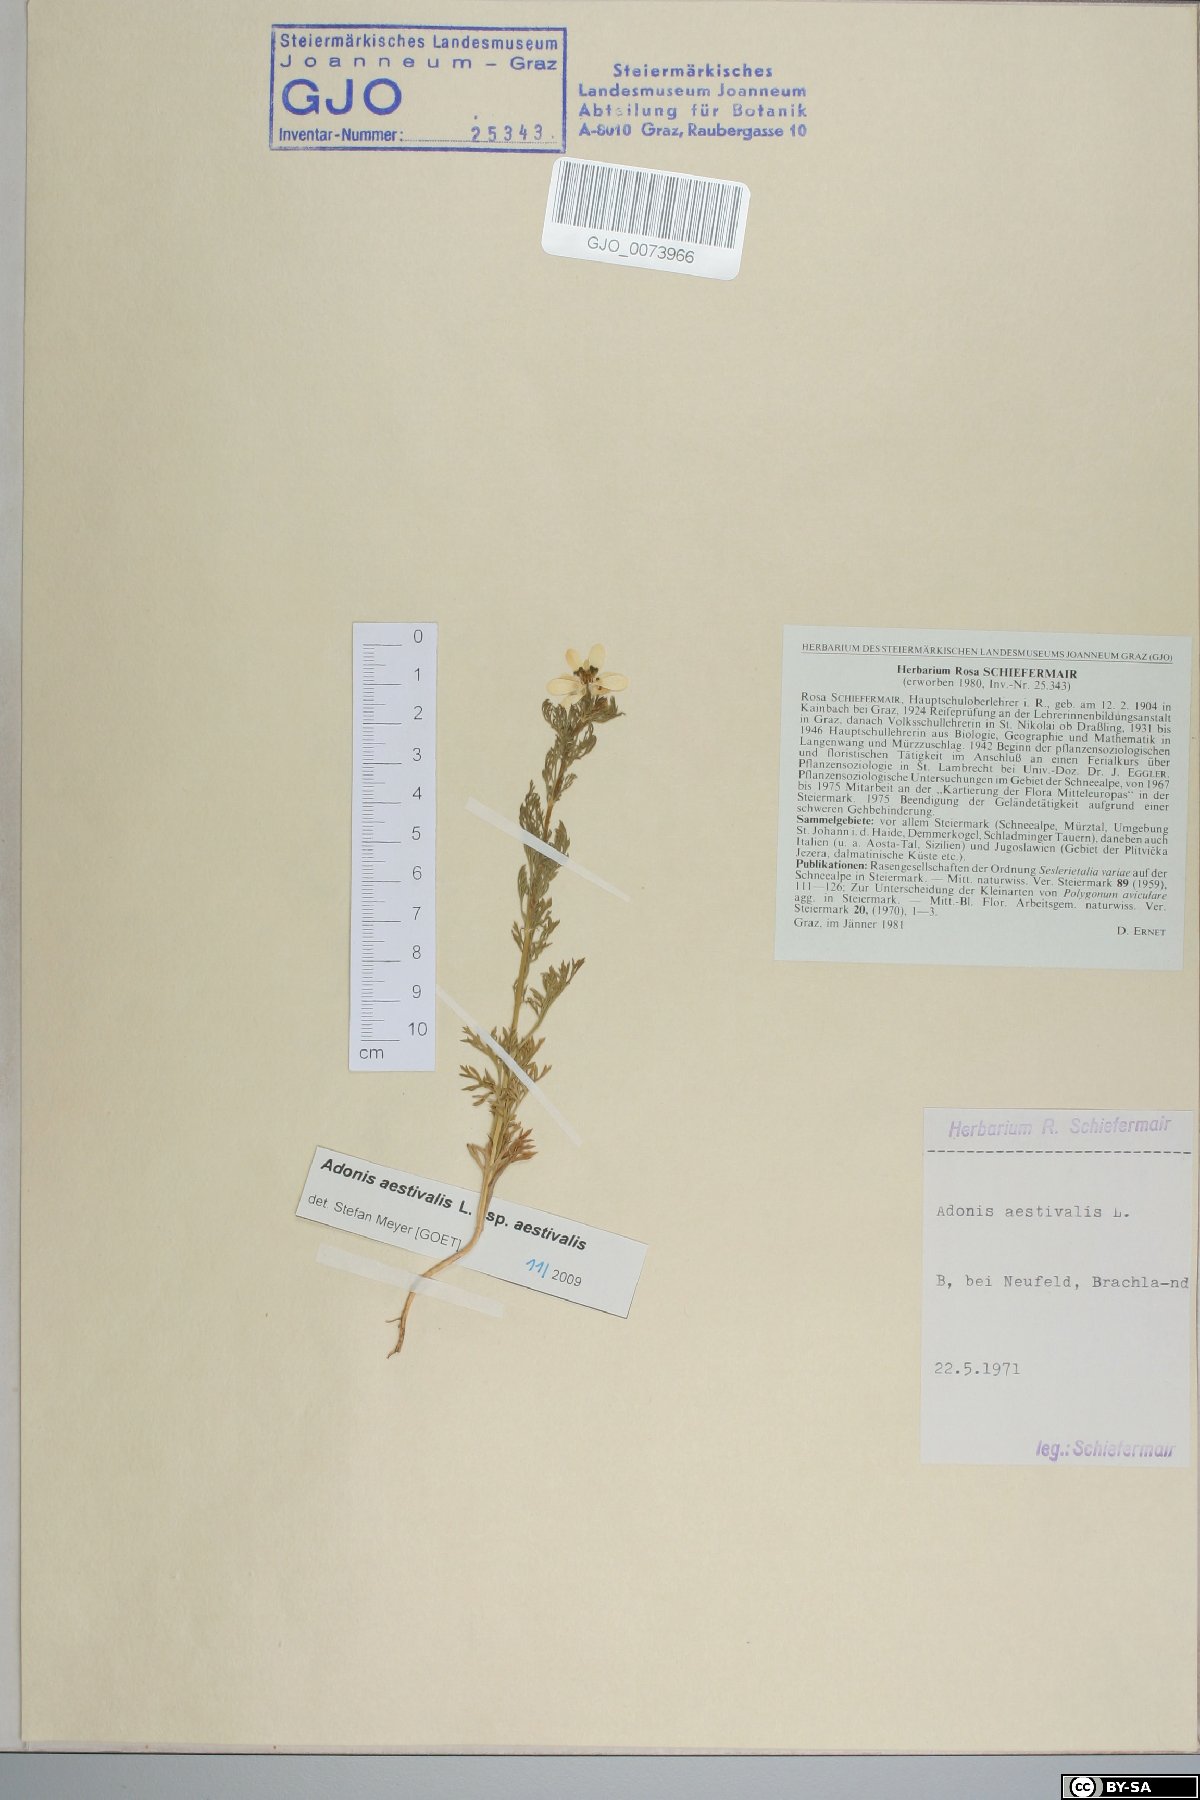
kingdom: Plantae
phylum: Tracheophyta
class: Magnoliopsida
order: Ranunculales
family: Ranunculaceae
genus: Adonis
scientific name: Adonis aestivalis
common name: Summer pheasant's-eye
